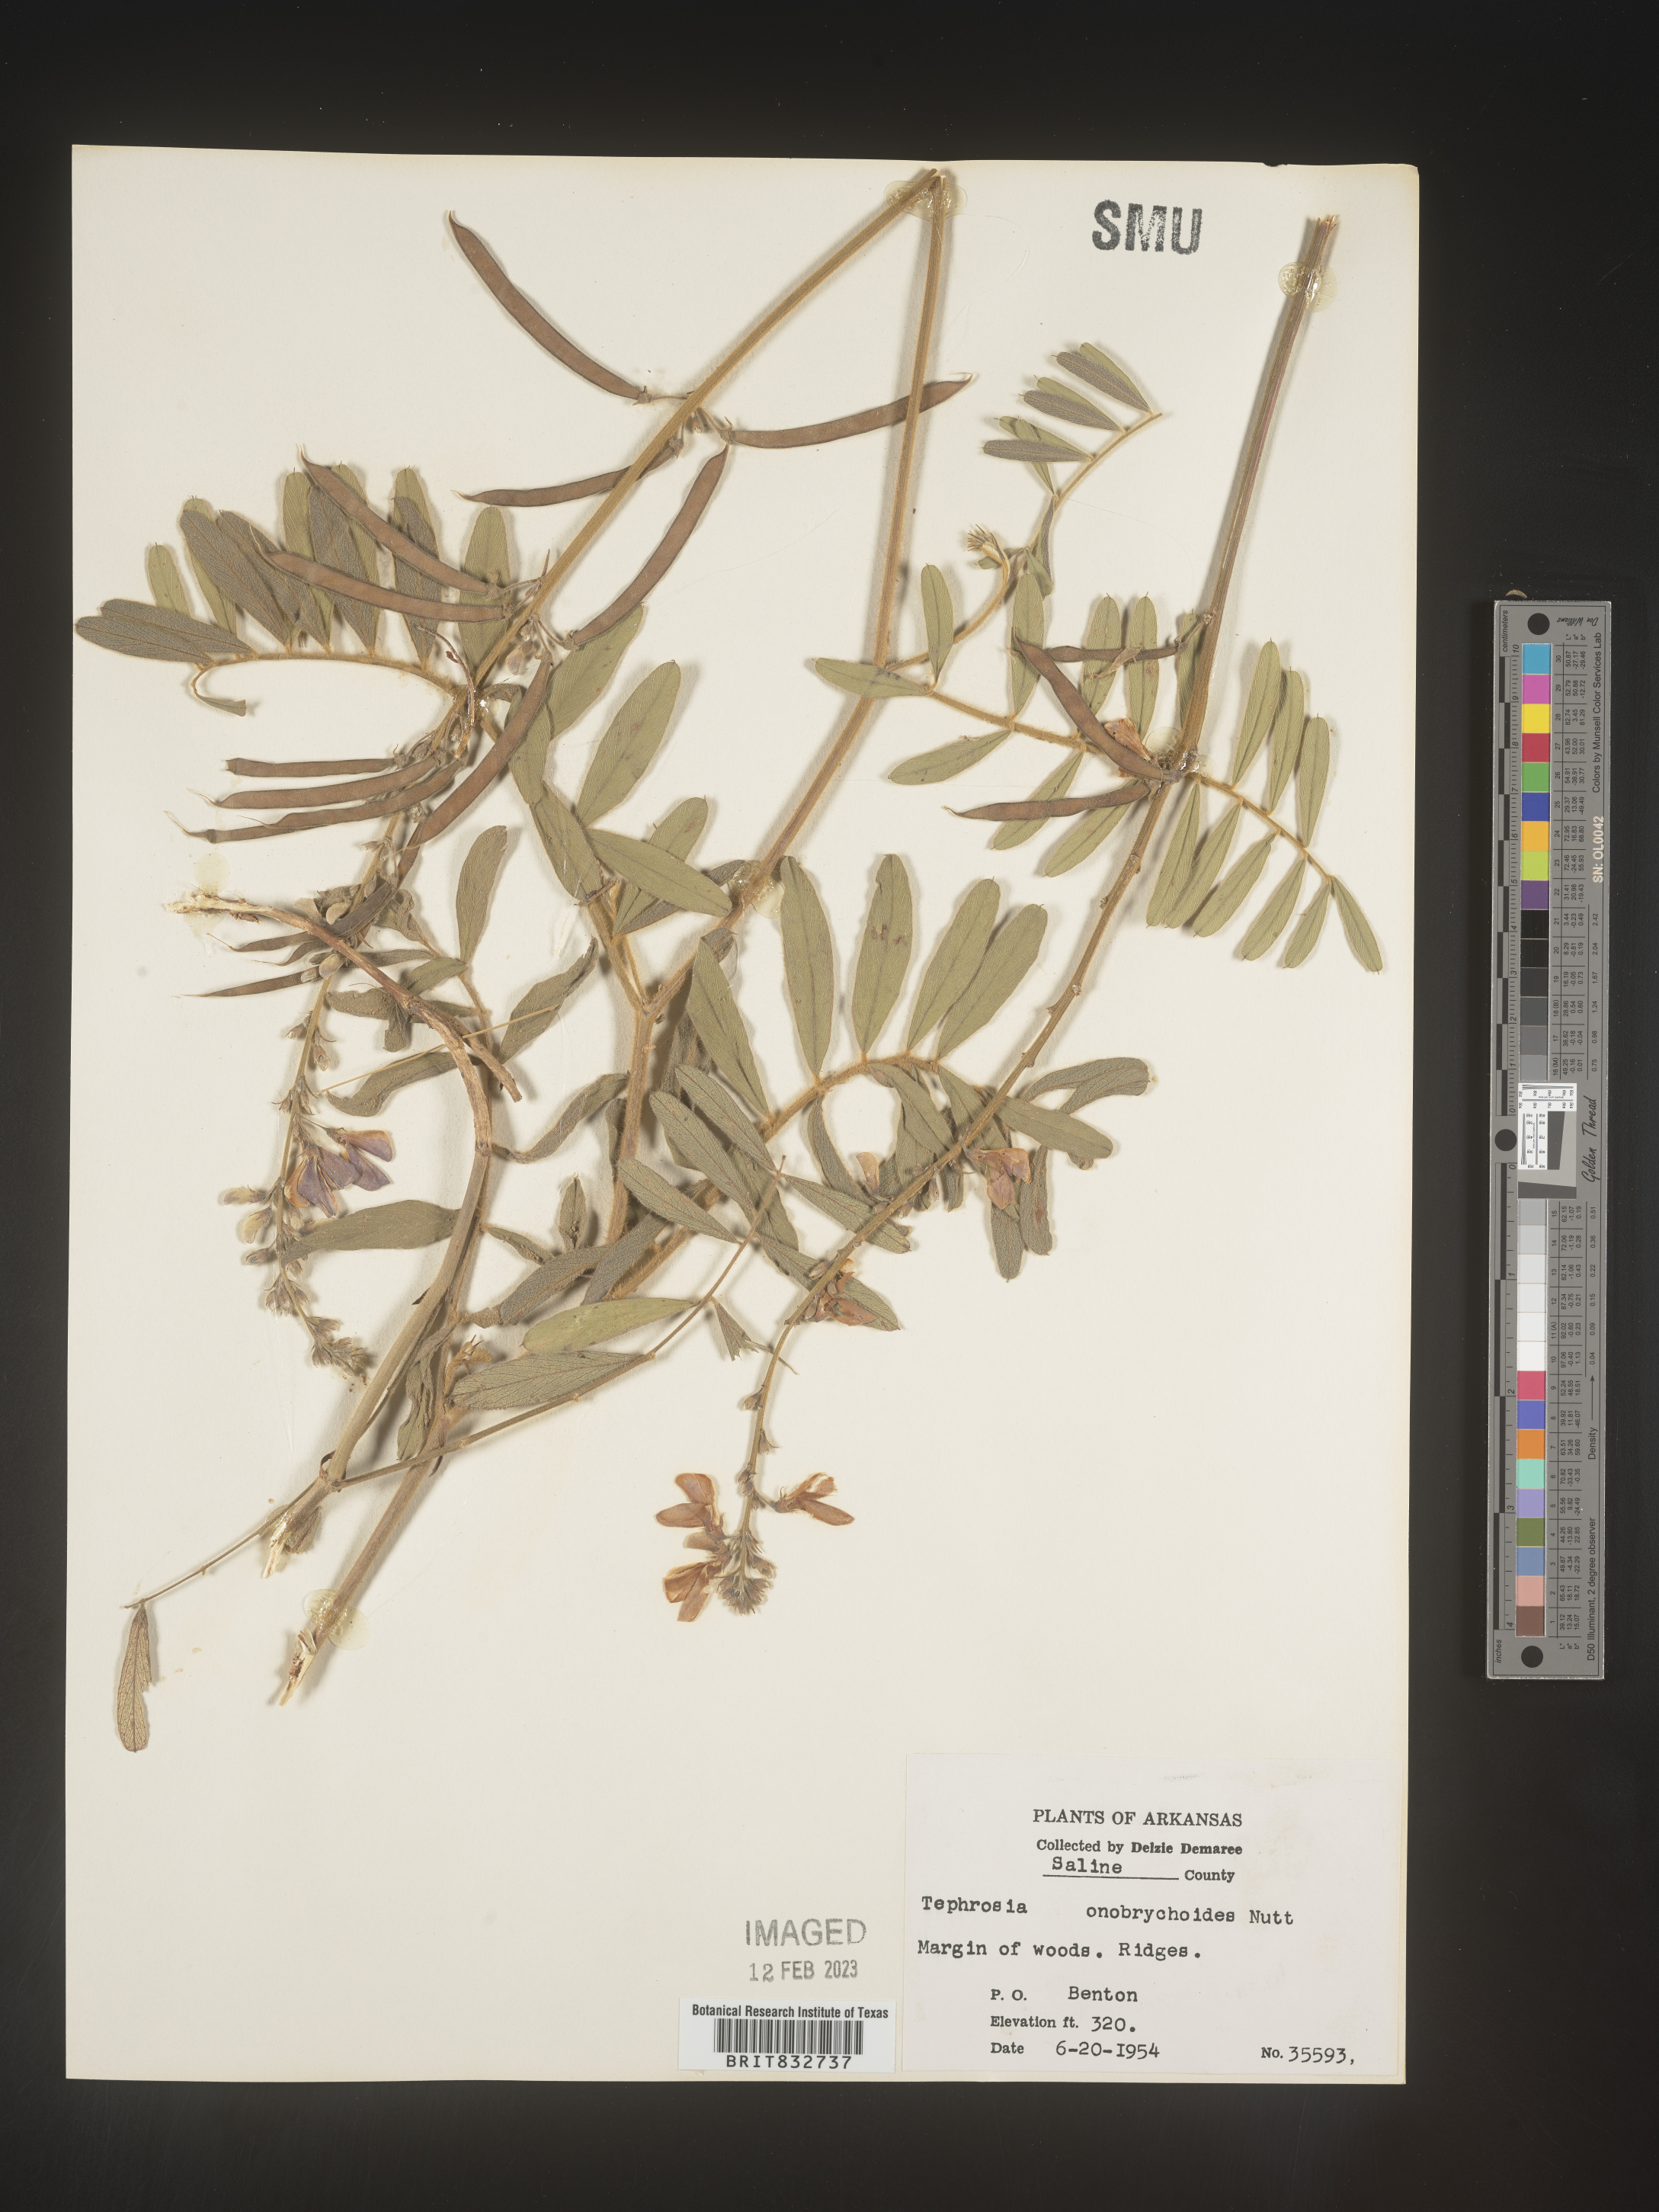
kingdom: Plantae
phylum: Tracheophyta
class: Magnoliopsida
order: Fabales
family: Fabaceae
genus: Tephrosia
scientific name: Tephrosia onobrychoides
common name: Multi-bloom hoary-pea
